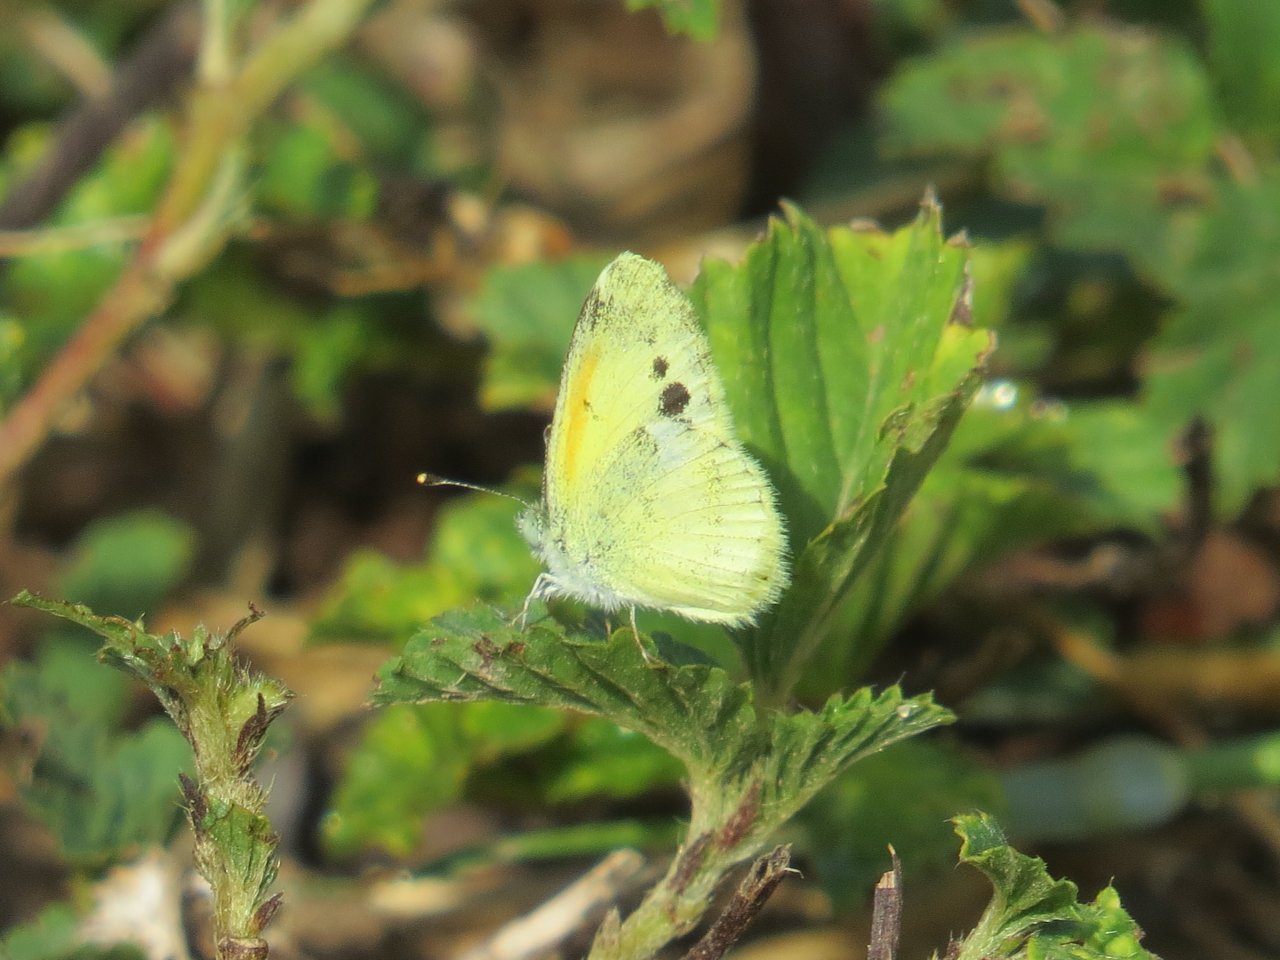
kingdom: Animalia
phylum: Arthropoda
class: Insecta
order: Lepidoptera
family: Pieridae
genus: Nathalis
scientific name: Nathalis iole
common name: Dainty Sulphur
